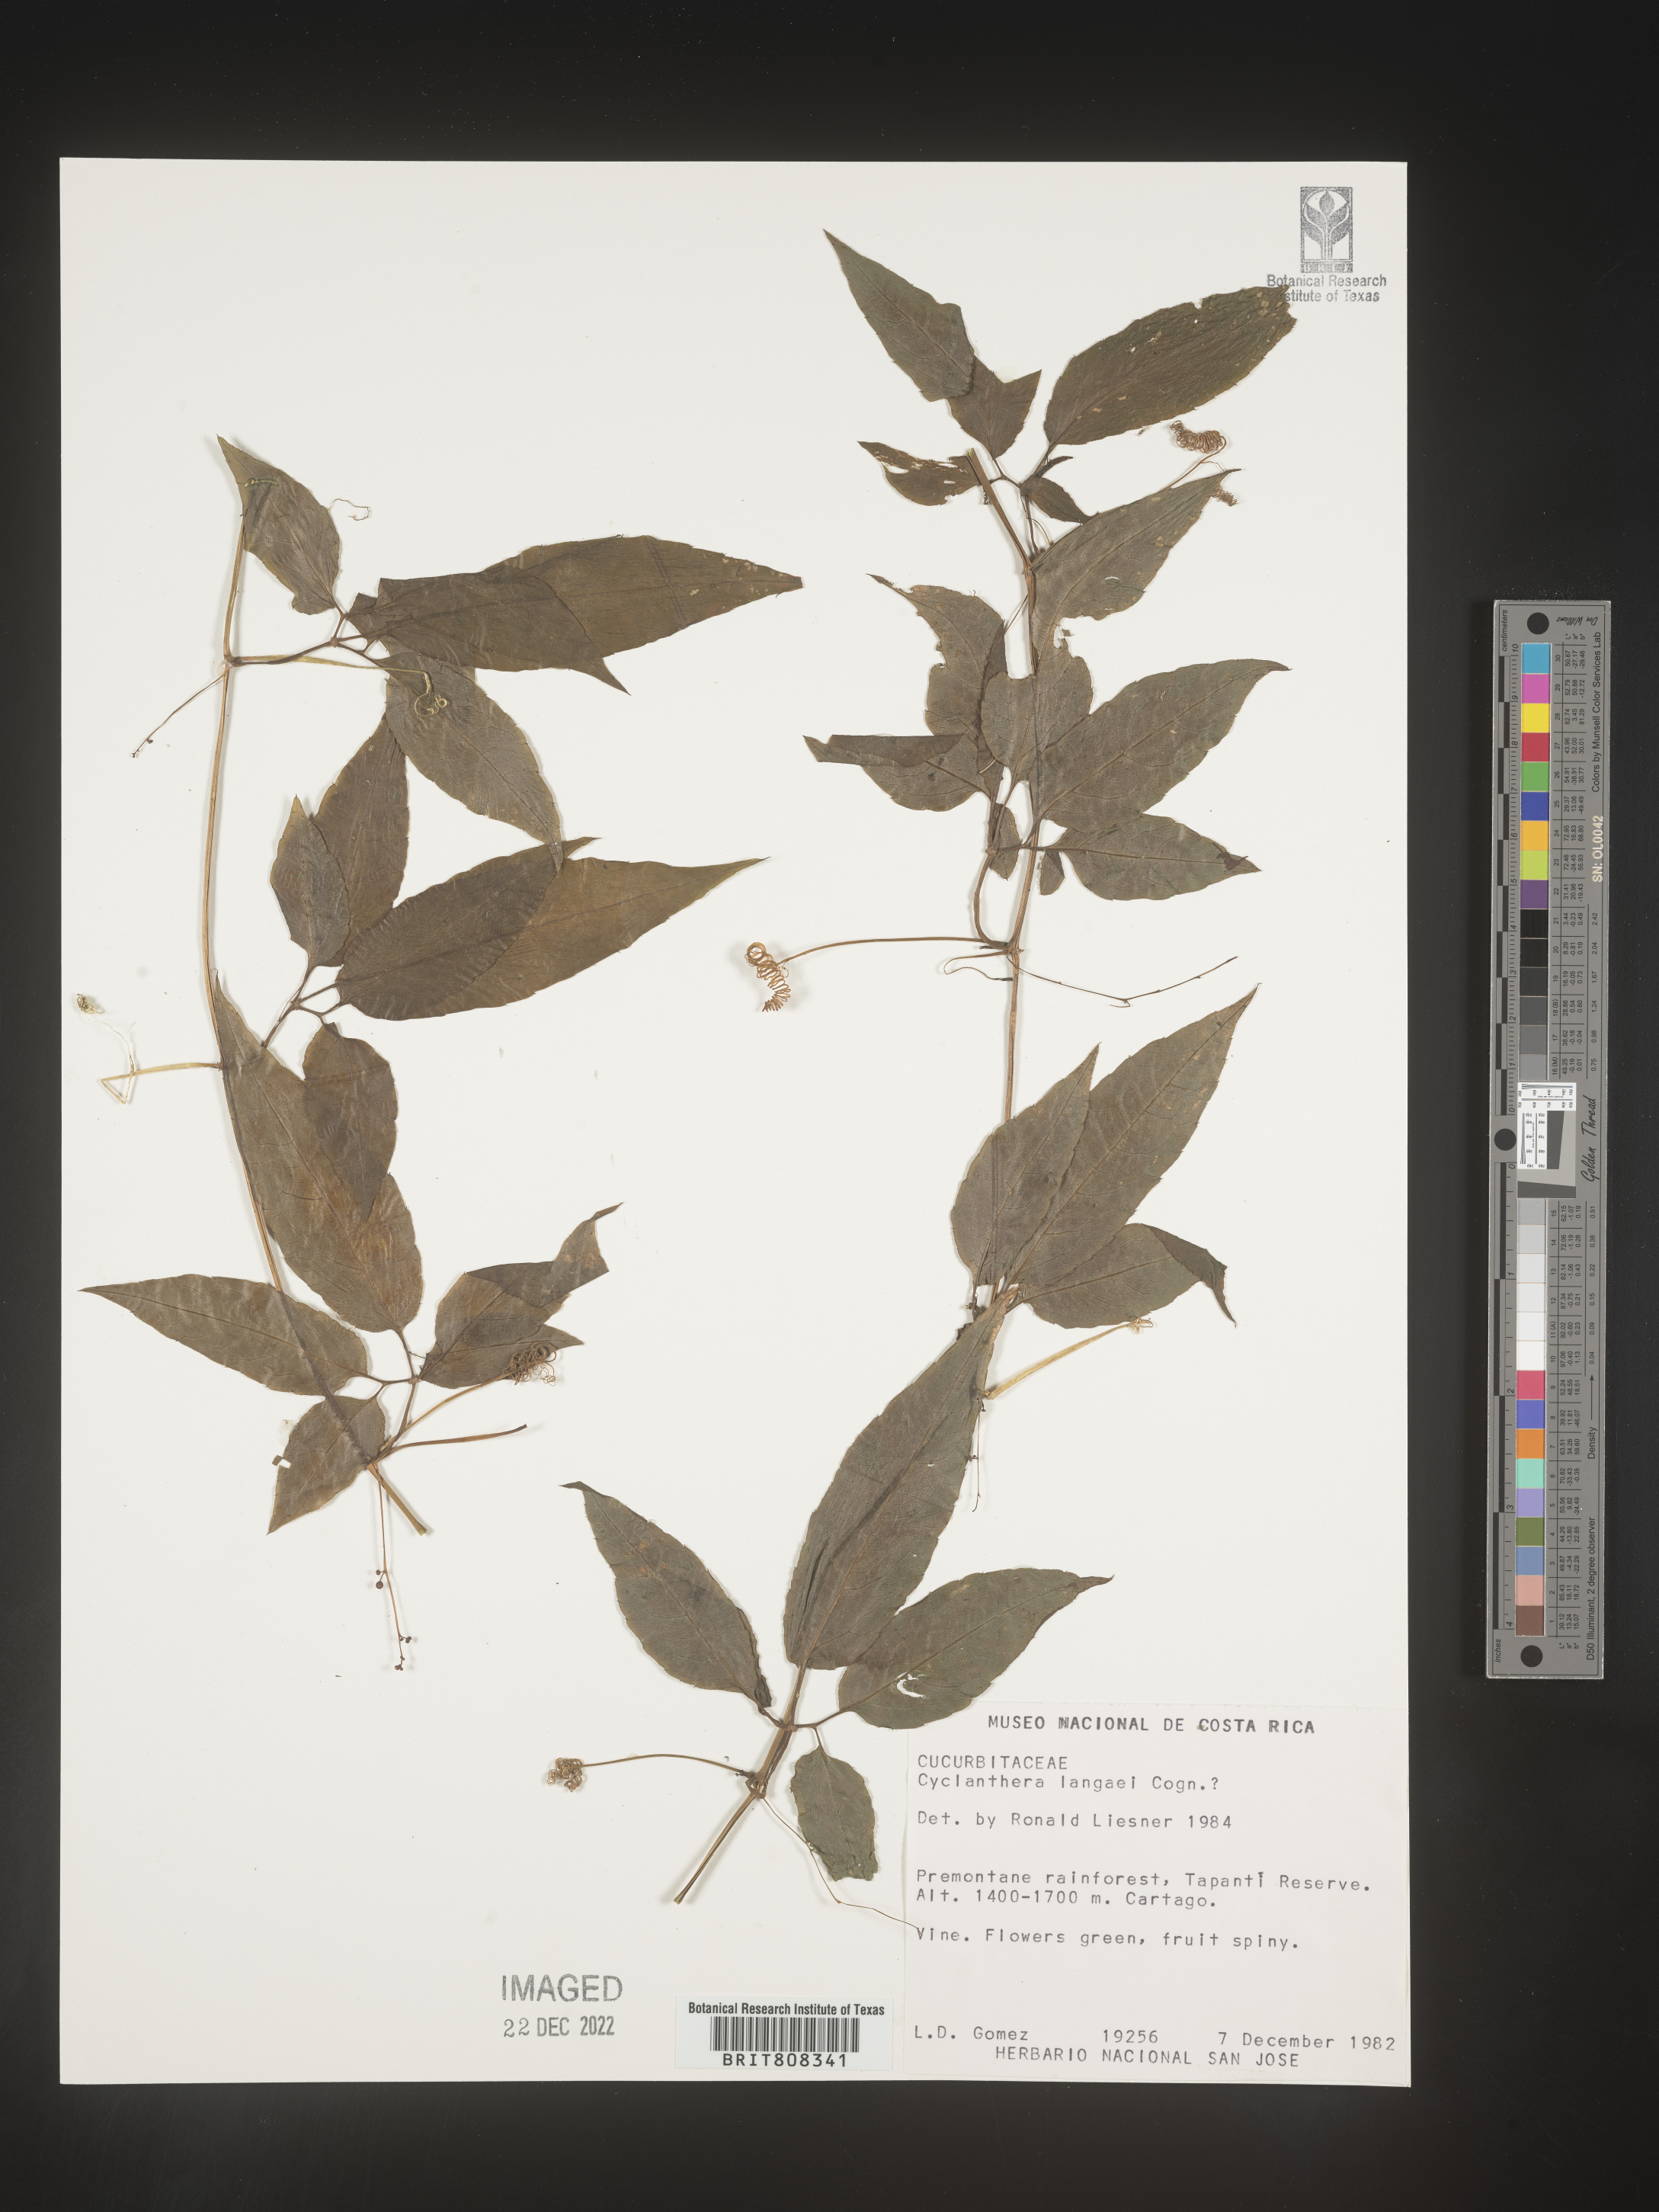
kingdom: Plantae
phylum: Tracheophyta
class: Magnoliopsida
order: Cucurbitales
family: Cucurbitaceae
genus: Cyclanthera
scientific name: Cyclanthera
